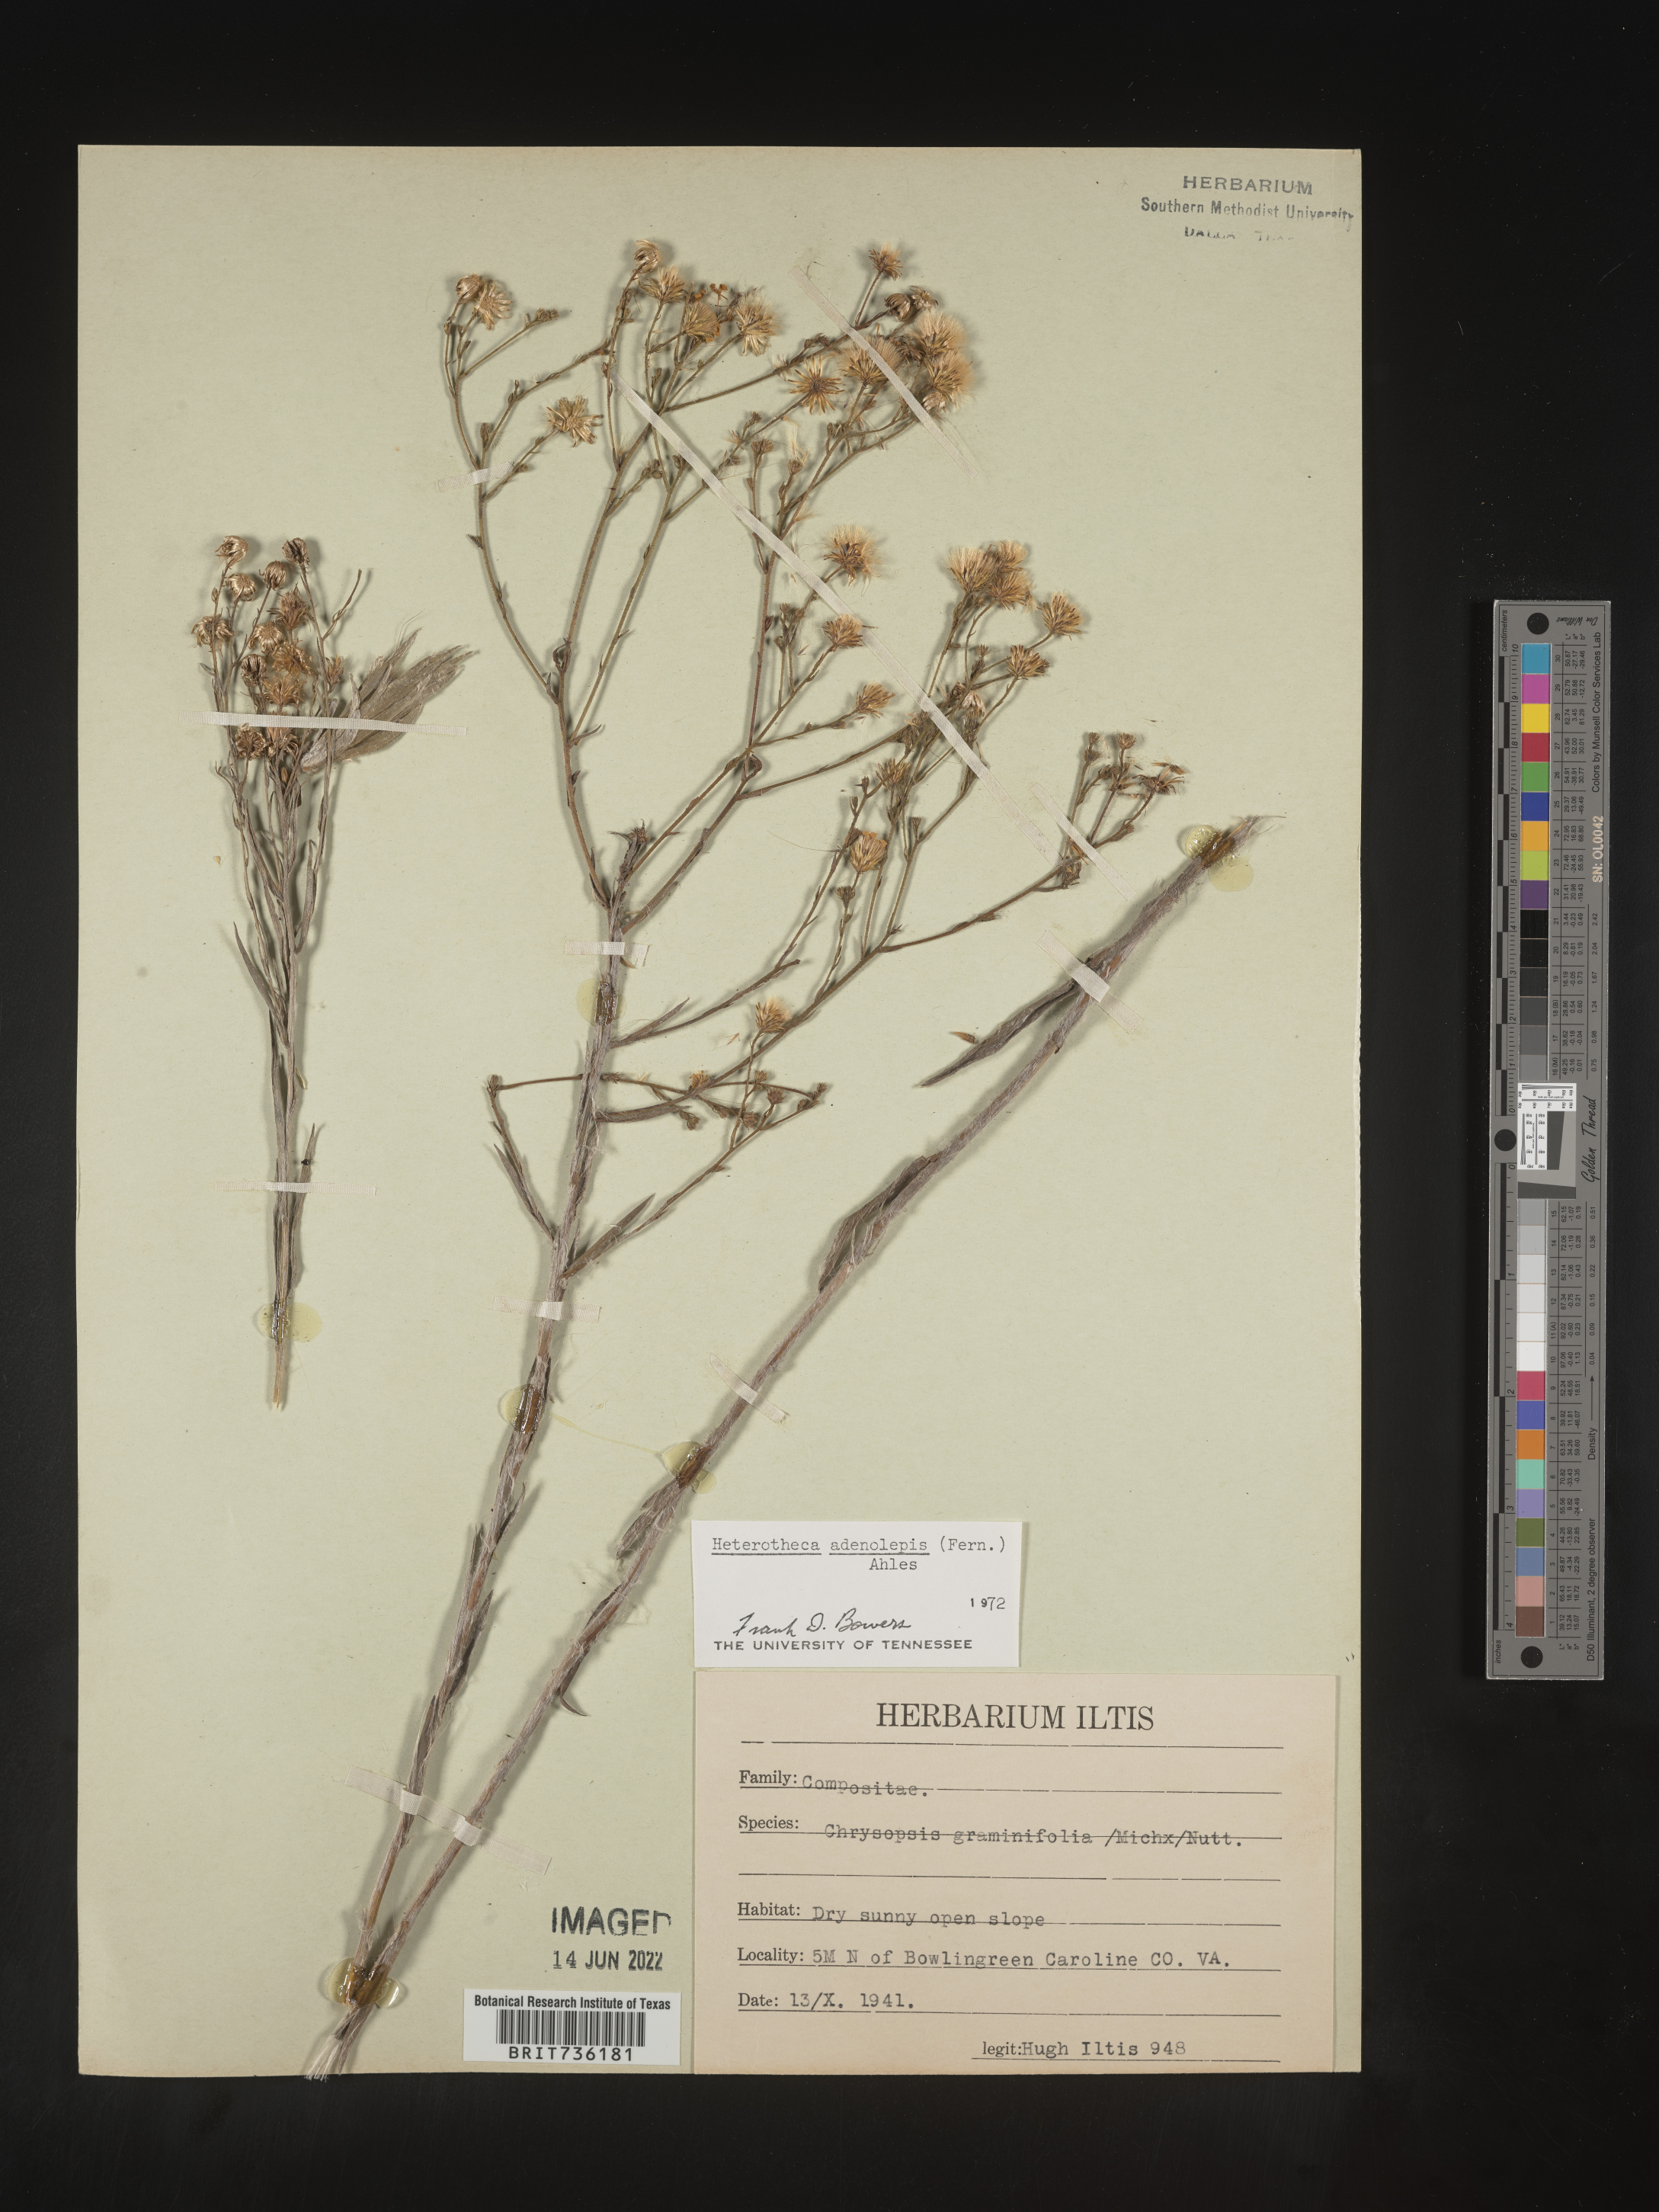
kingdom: Plantae
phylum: Tracheophyta
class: Magnoliopsida
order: Asterales
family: Asteraceae
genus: Pityopsis
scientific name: Pityopsis aspera
